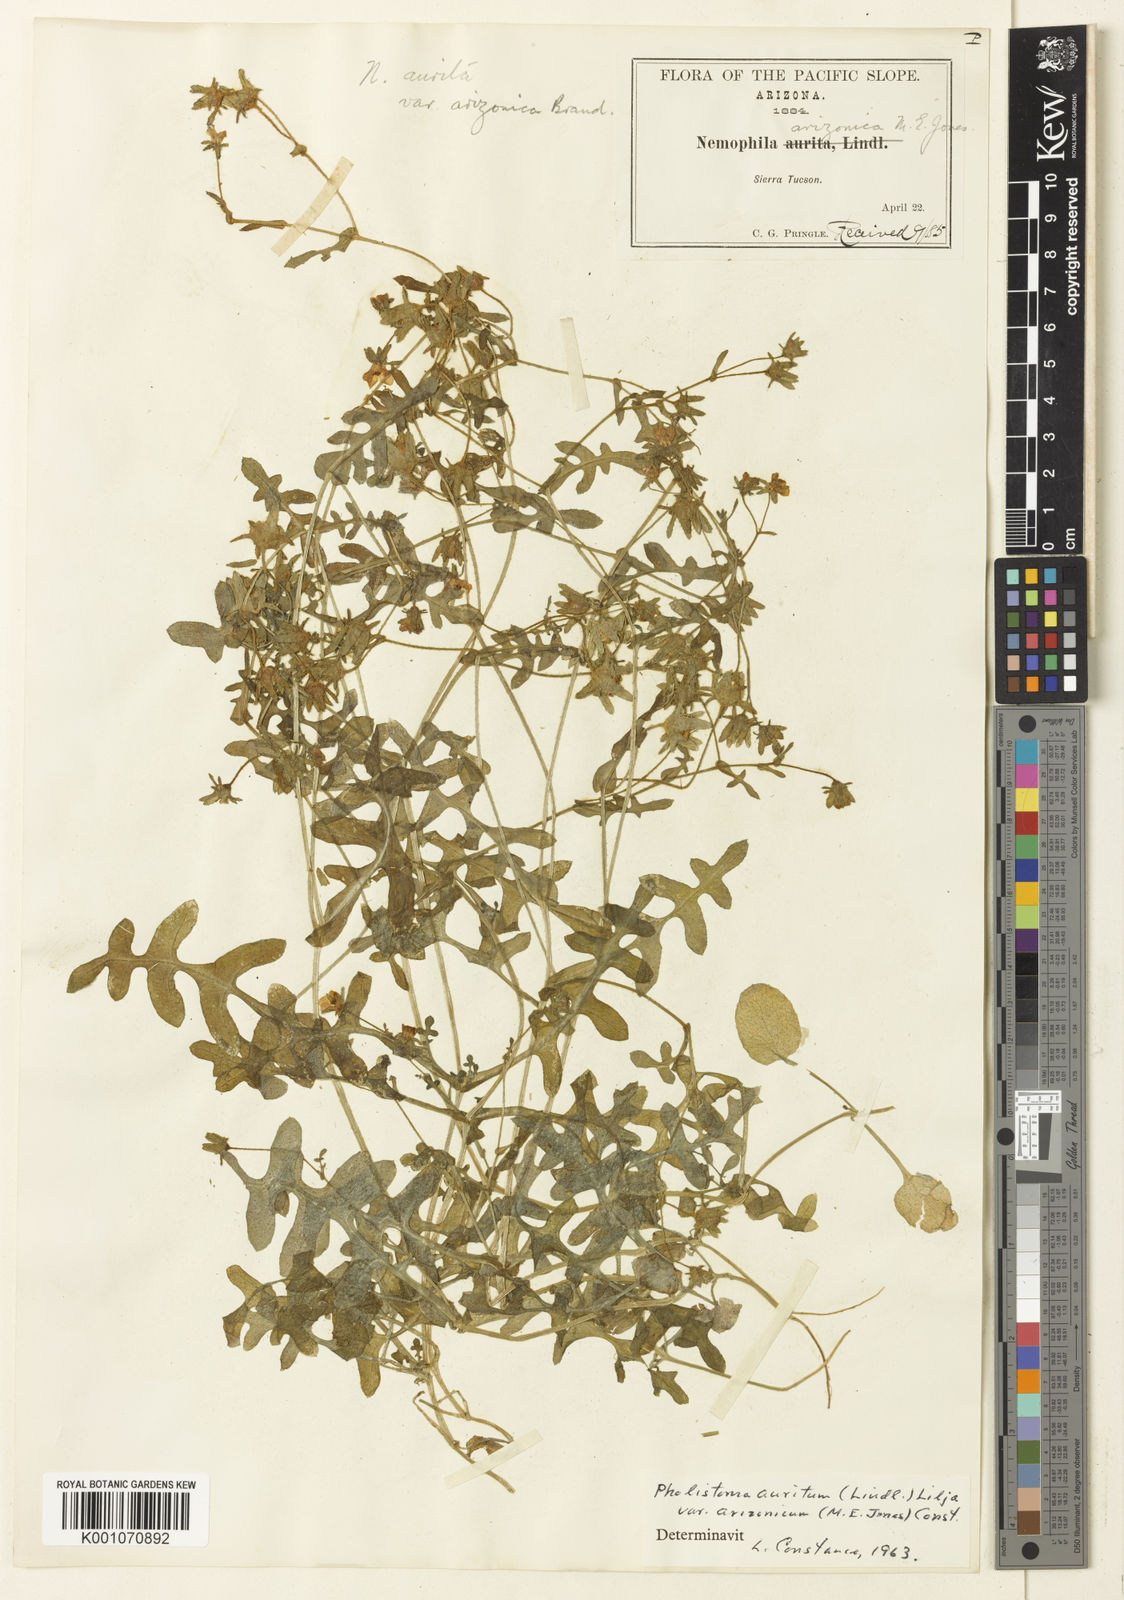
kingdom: Plantae
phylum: Tracheophyta
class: Magnoliopsida
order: Boraginales
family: Hydrophyllaceae
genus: Pholistoma
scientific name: Pholistoma auritum
